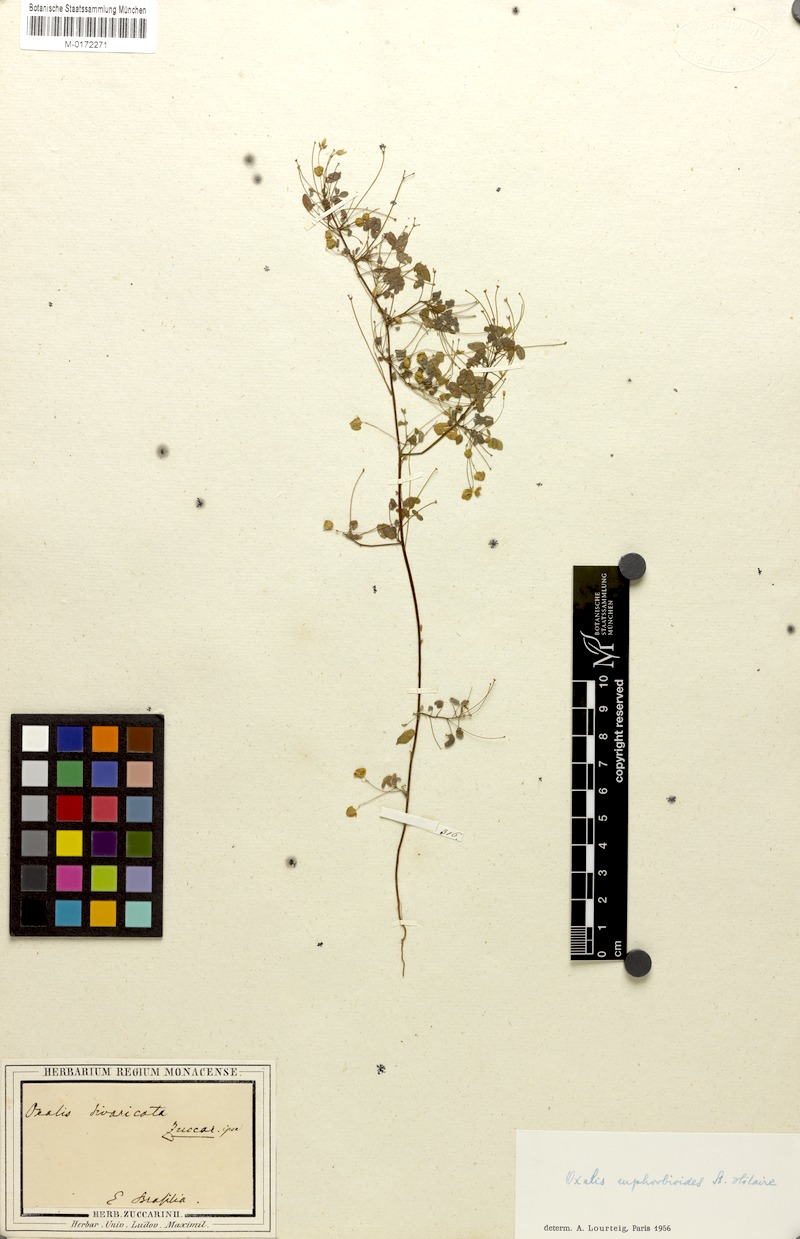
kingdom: Plantae
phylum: Tracheophyta
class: Magnoliopsida
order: Oxalidales
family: Oxalidaceae
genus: Oxalis
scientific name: Oxalis divaricata
